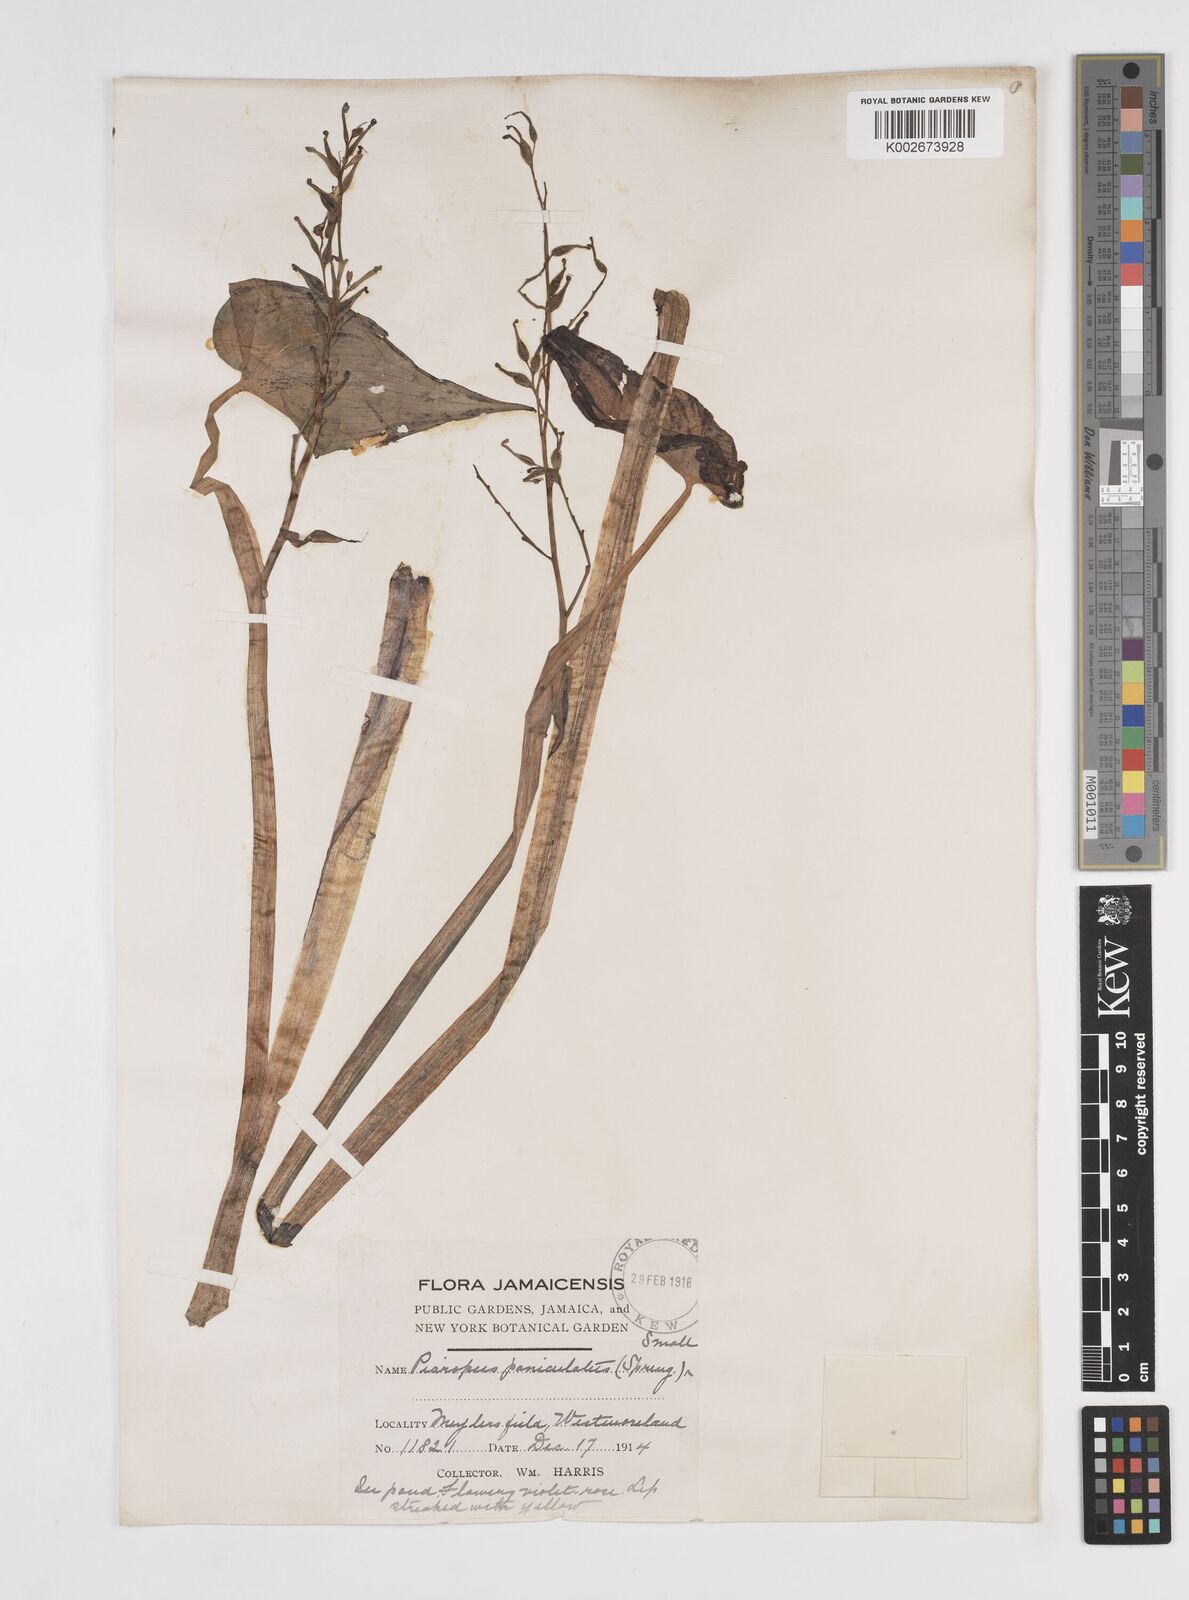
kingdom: Plantae
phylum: Tracheophyta
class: Liliopsida
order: Commelinales
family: Pontederiaceae
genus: Pontederia
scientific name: Pontederia paniculata
